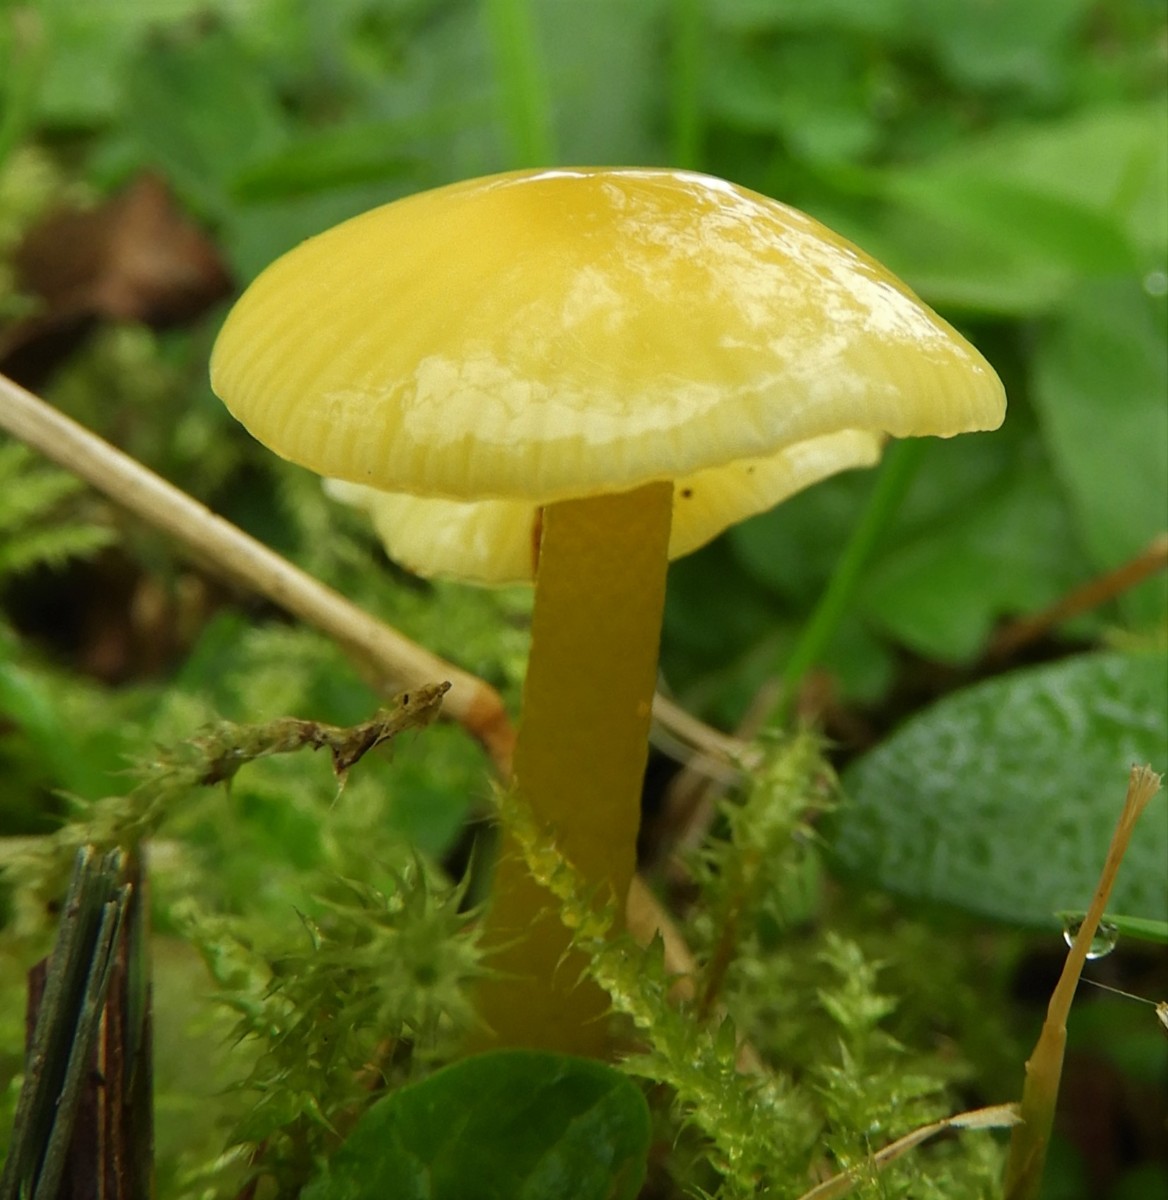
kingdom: Fungi
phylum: Basidiomycota
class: Agaricomycetes
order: Agaricales
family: Hygrophoraceae
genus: Hygrocybe
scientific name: Hygrocybe ceracea
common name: voksgul vokshat
